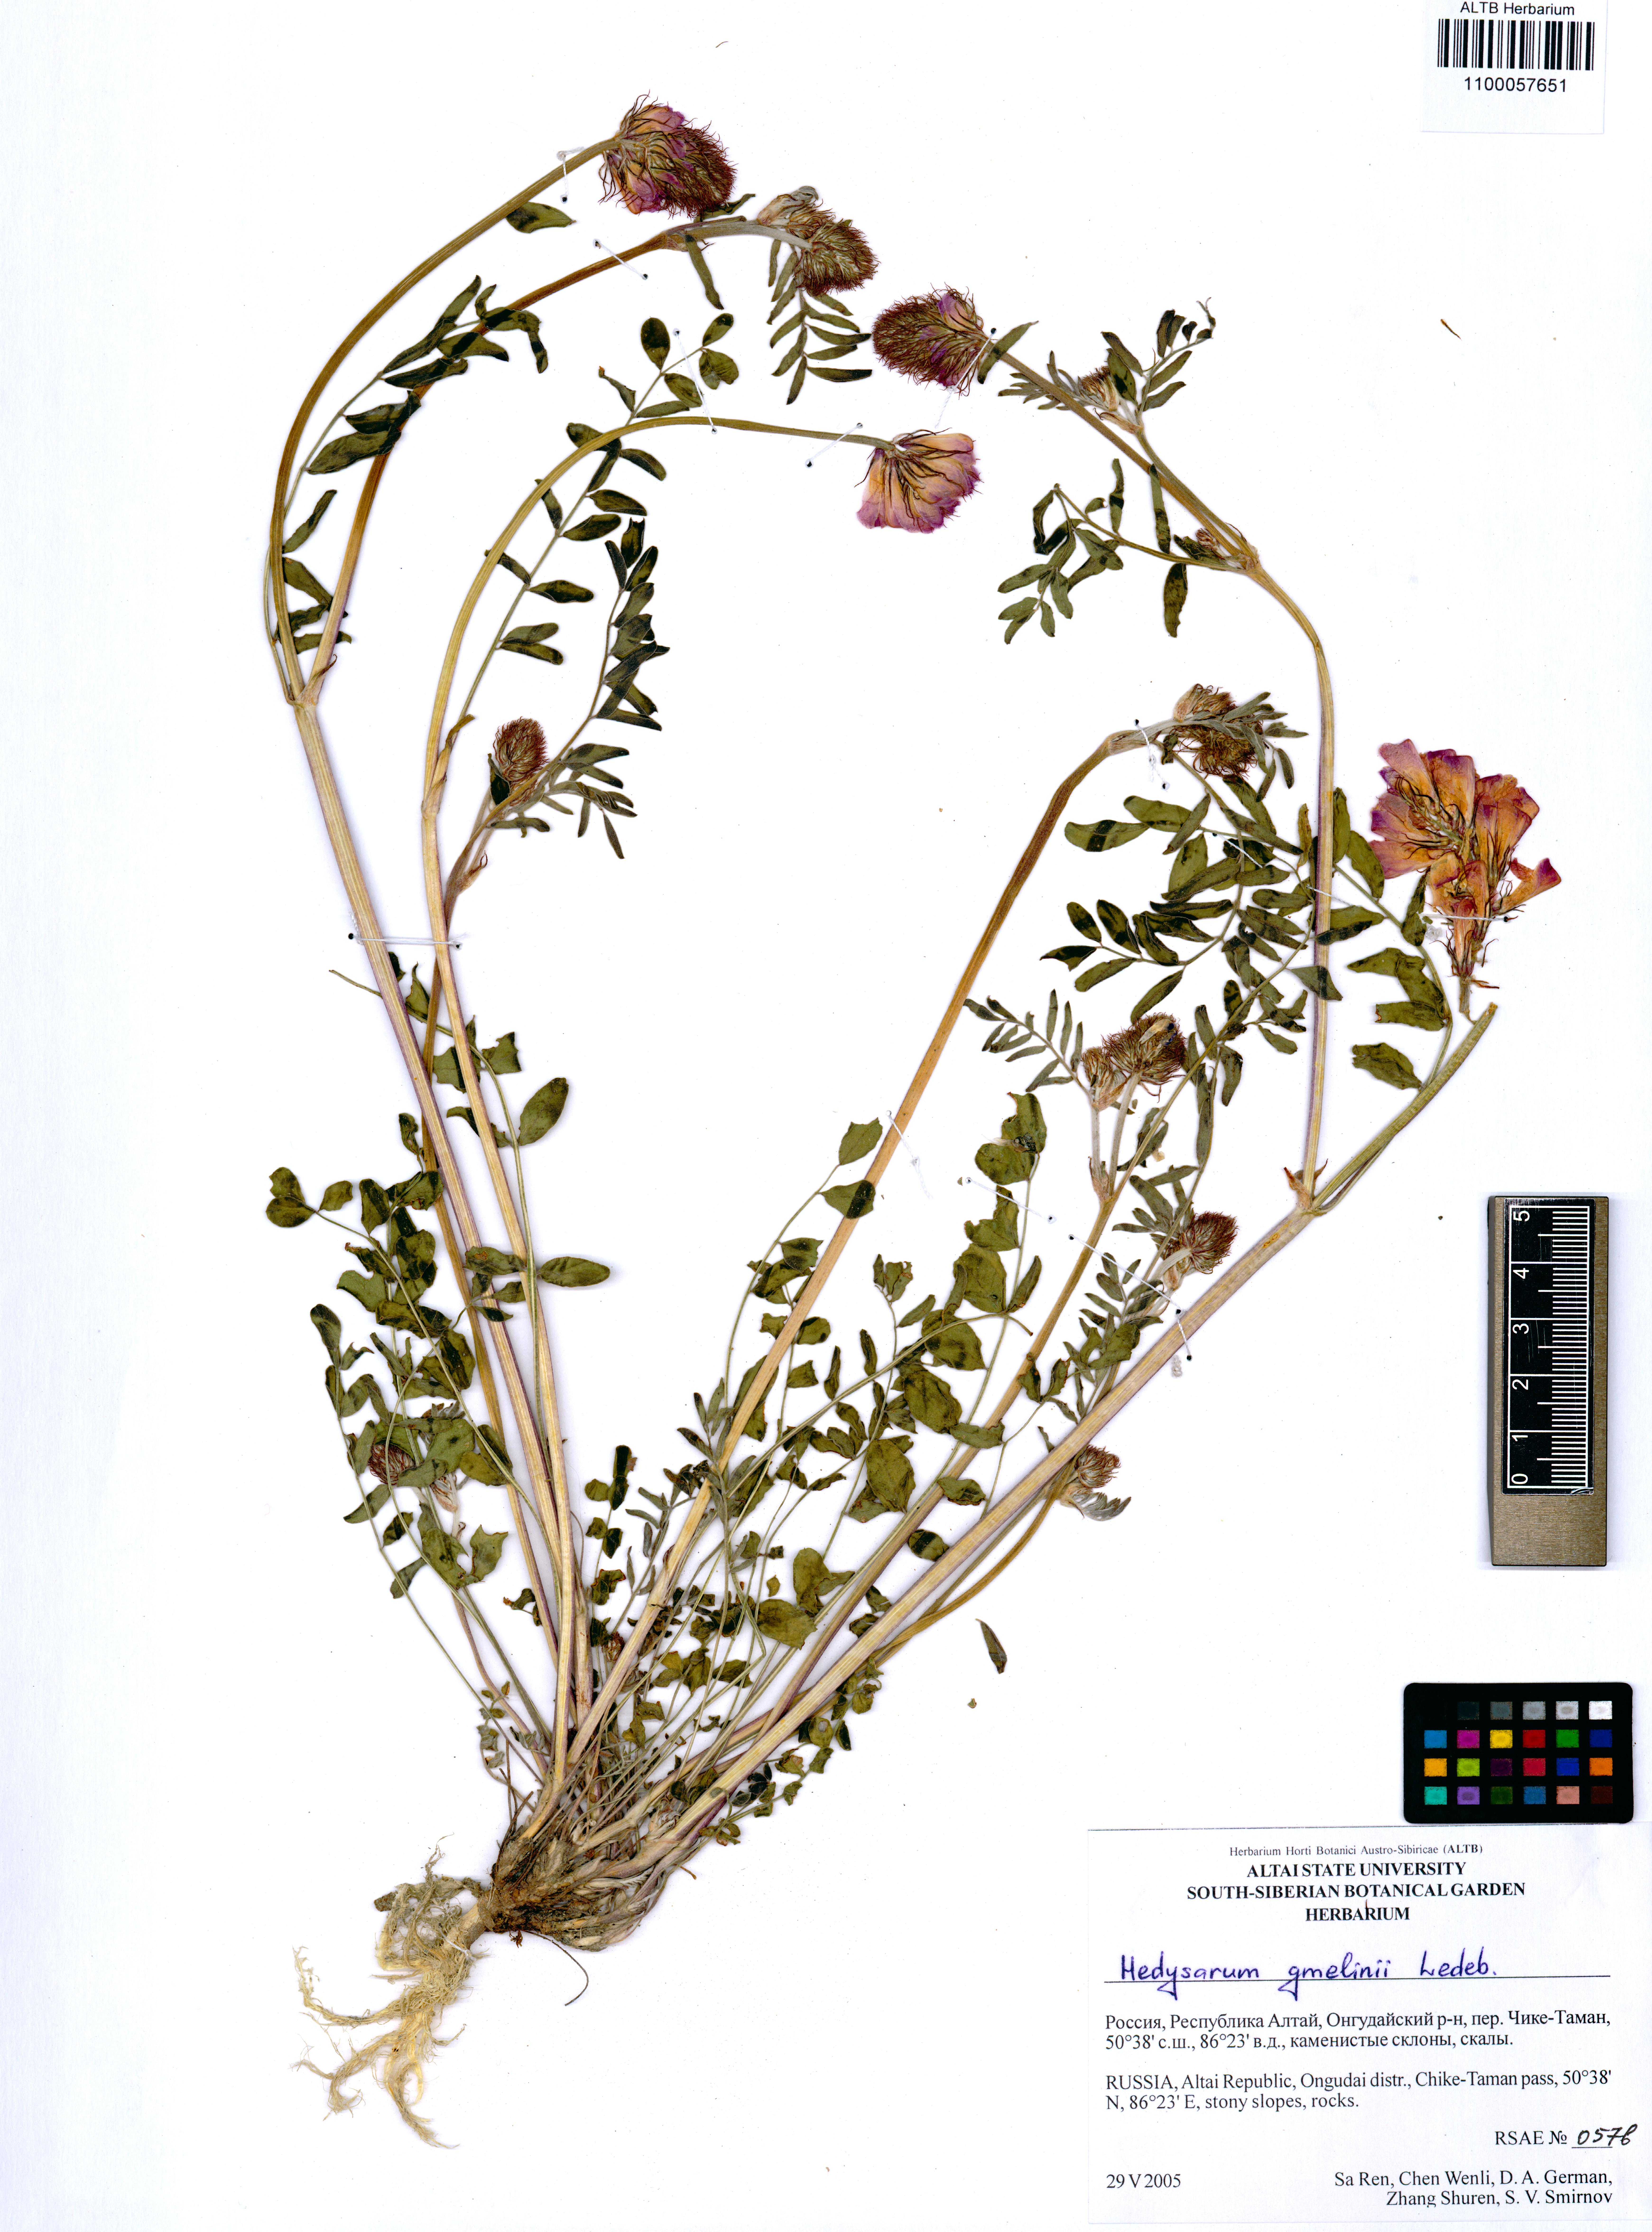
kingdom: Plantae
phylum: Tracheophyta
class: Magnoliopsida
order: Fabales
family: Fabaceae
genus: Hedysarum
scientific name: Hedysarum gmelinii
